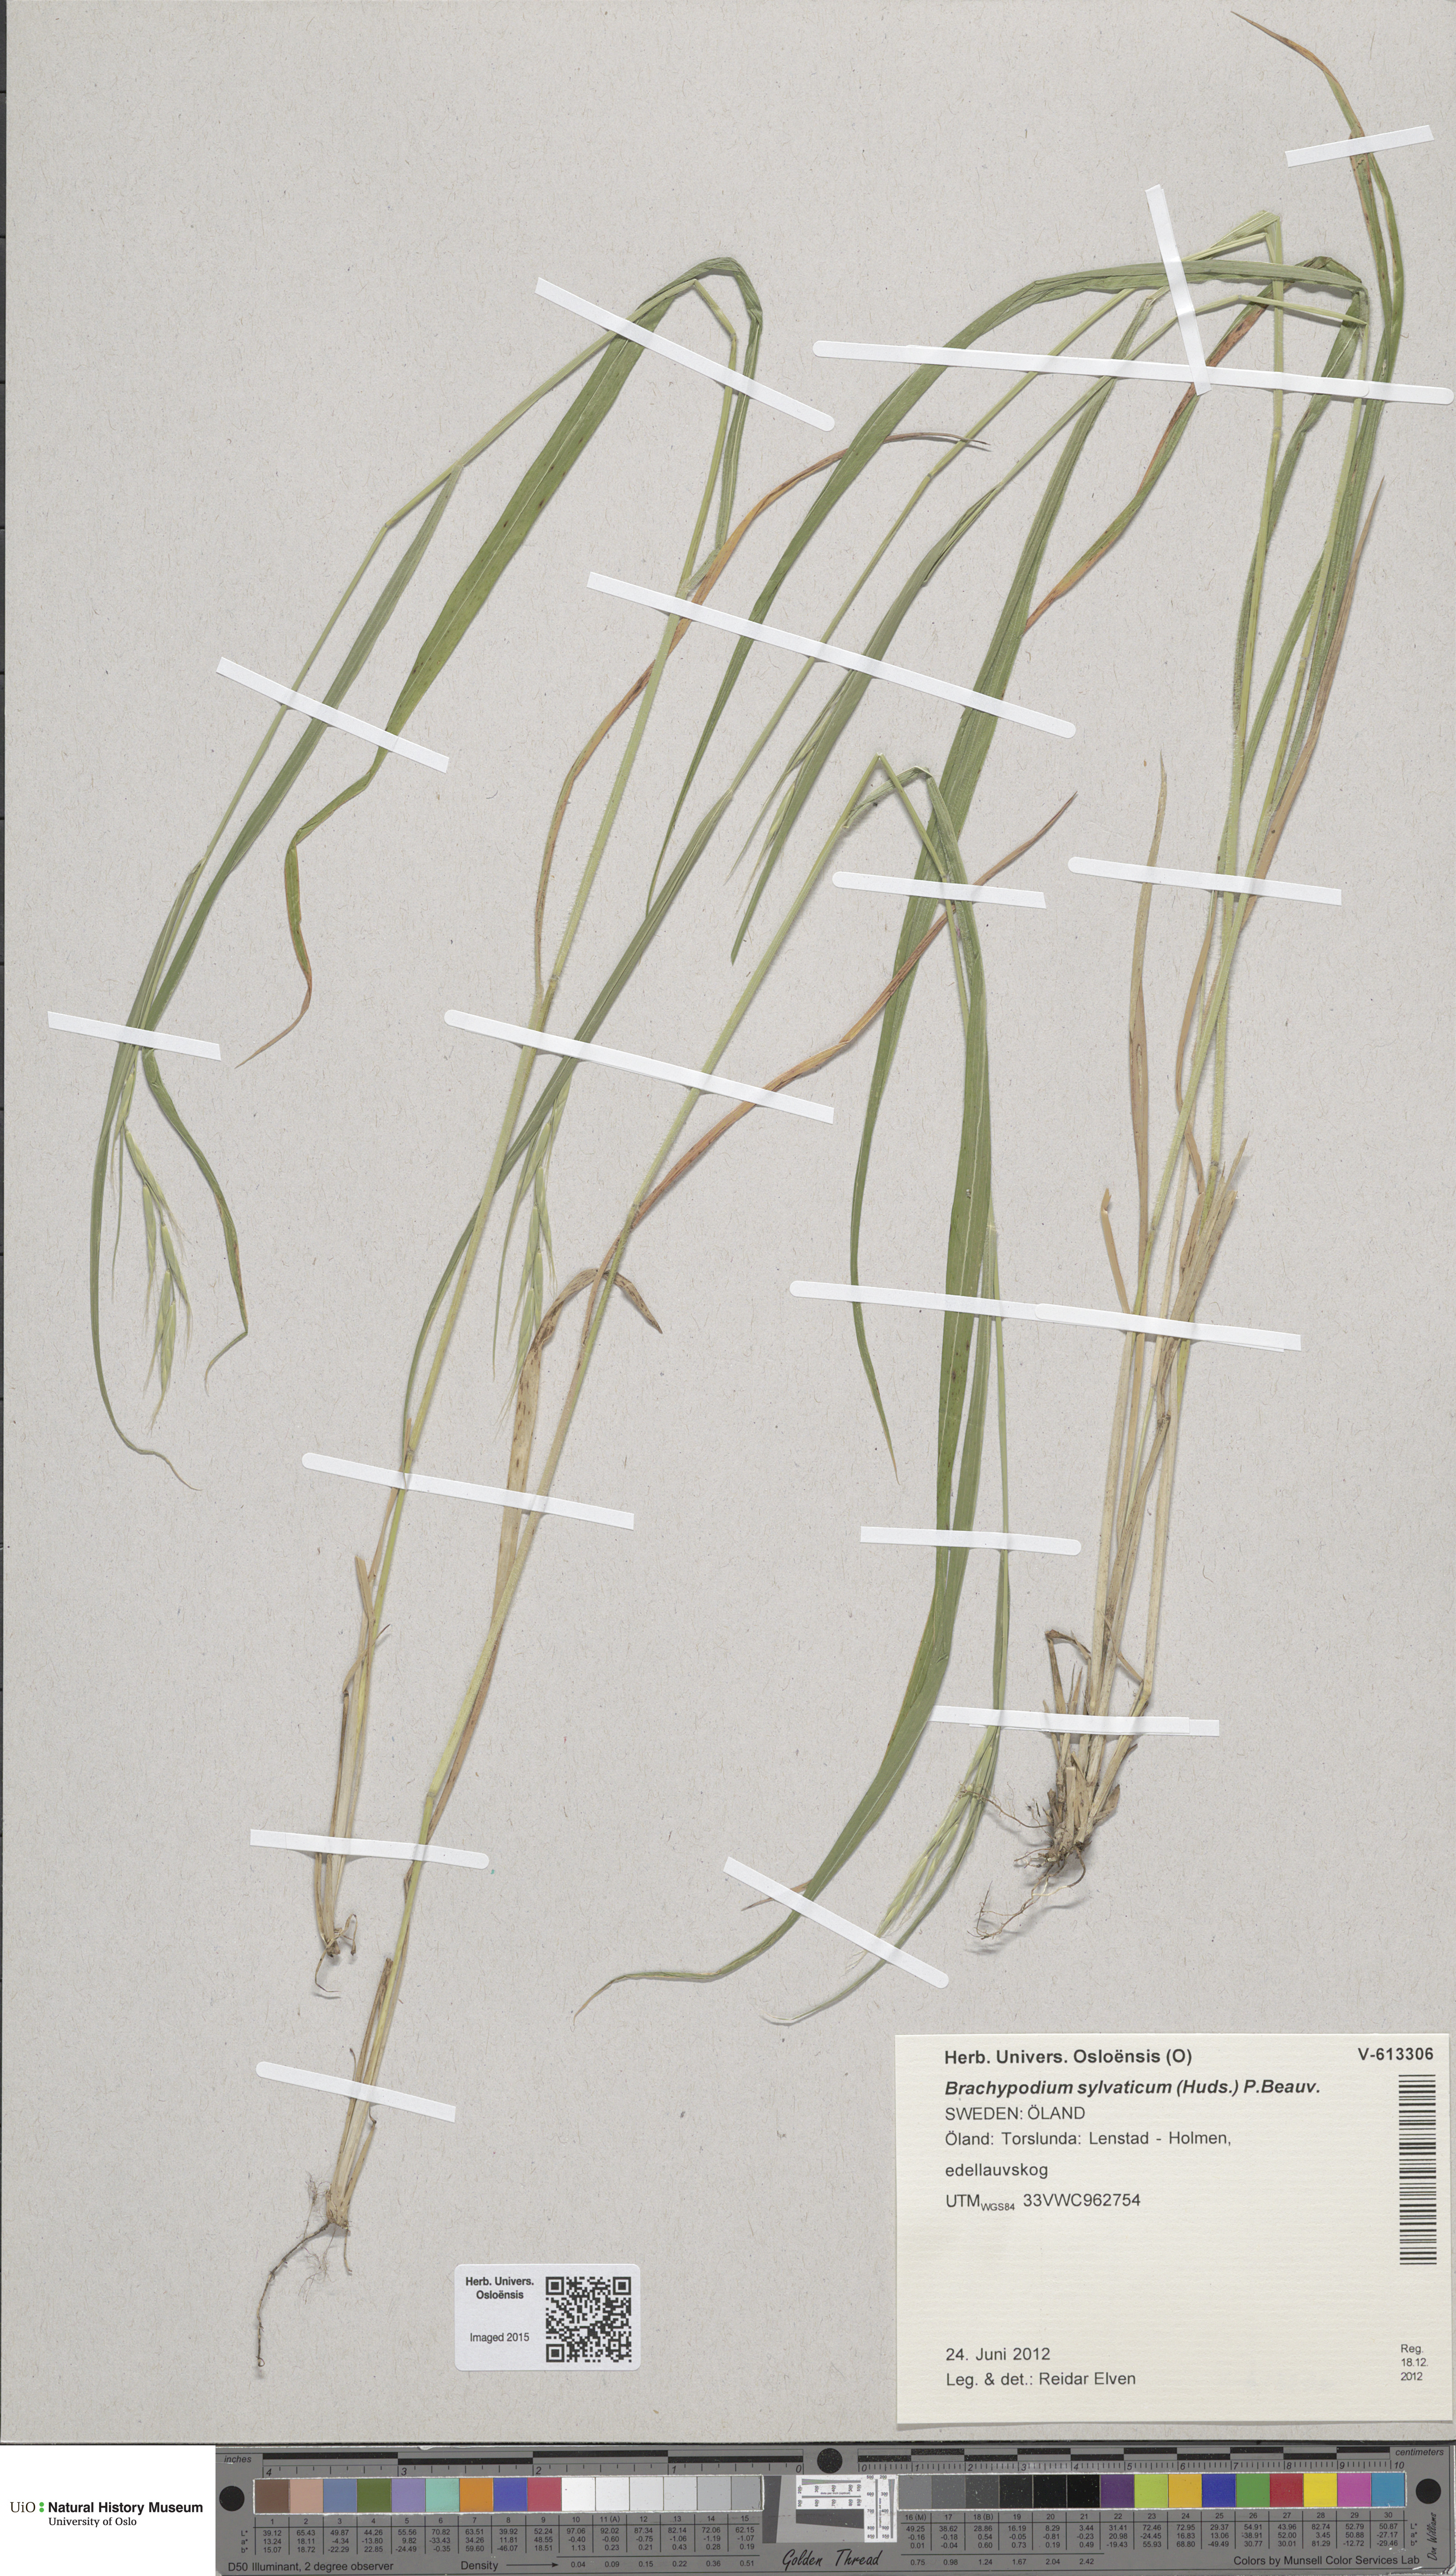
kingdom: Plantae
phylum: Tracheophyta
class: Liliopsida
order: Poales
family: Poaceae
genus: Brachypodium
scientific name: Brachypodium sylvaticum
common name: False-brome
